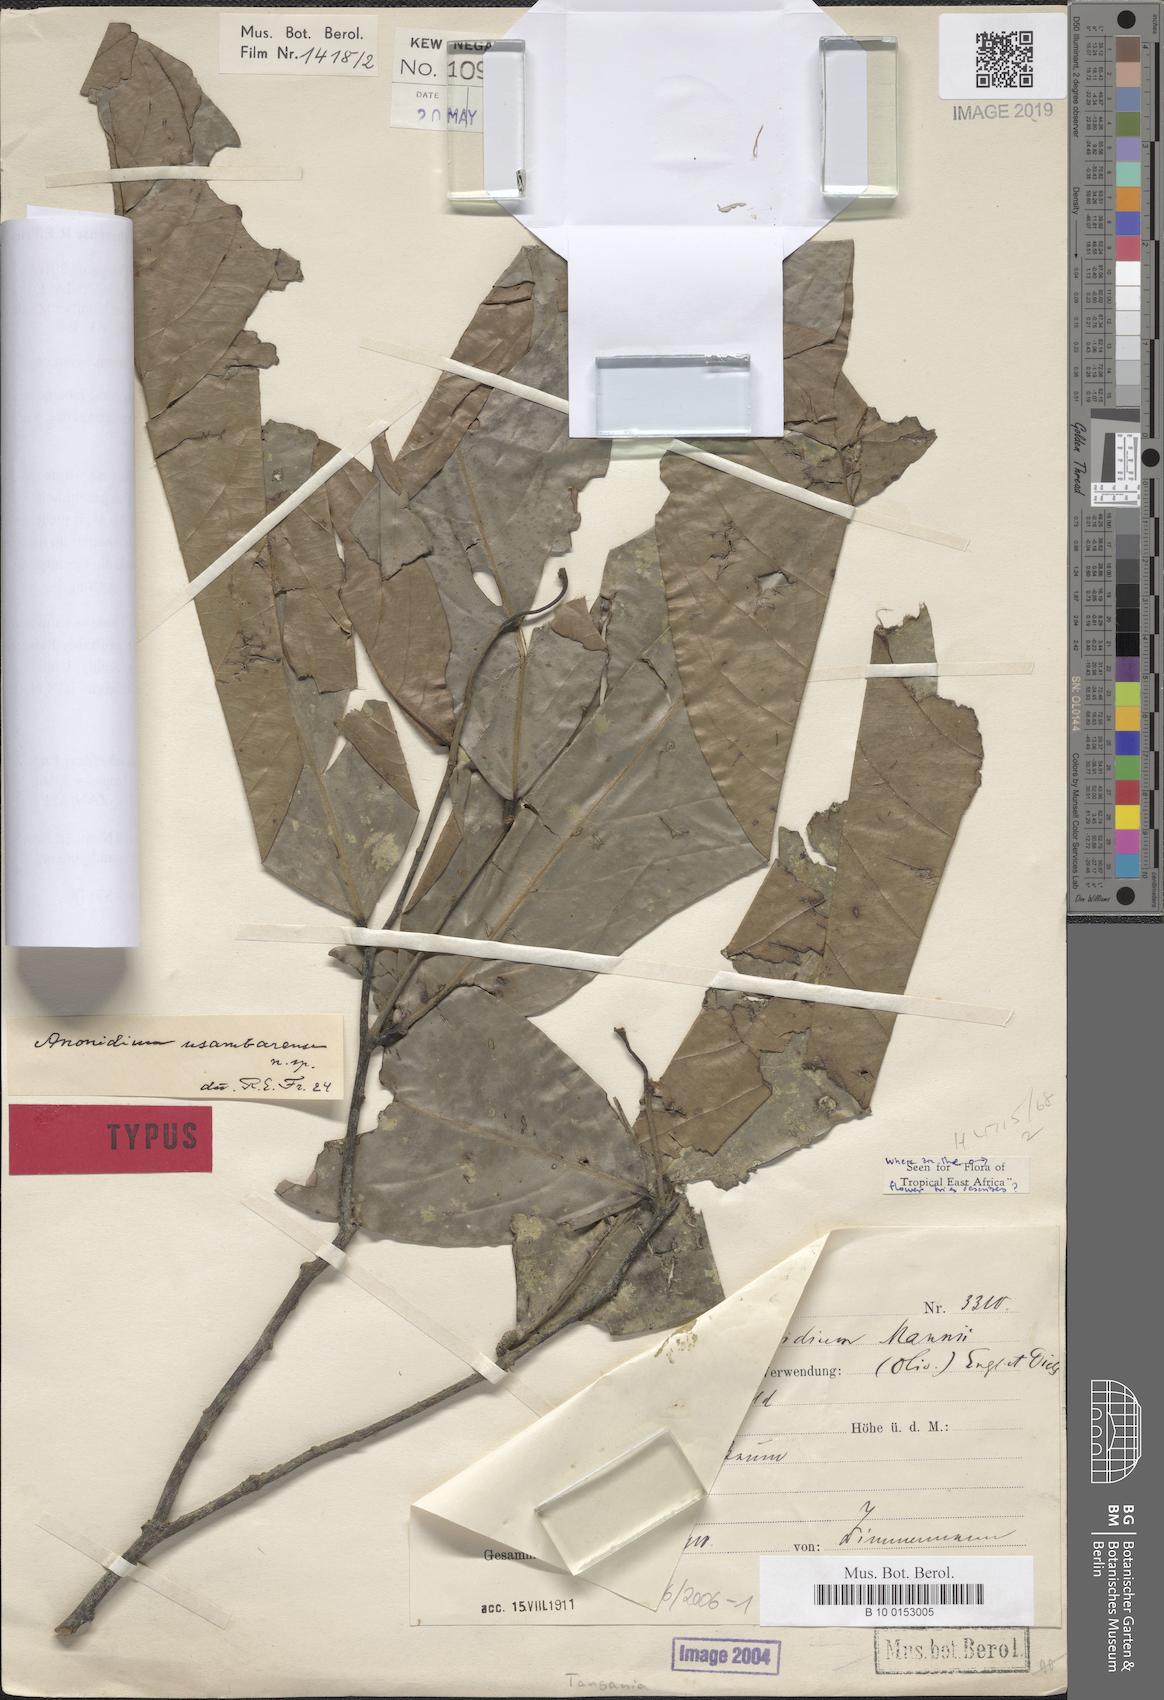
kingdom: Plantae
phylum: Tracheophyta
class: Magnoliopsida
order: Magnoliales
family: Annonaceae
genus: Anonidium
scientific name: Anonidium usambarense
